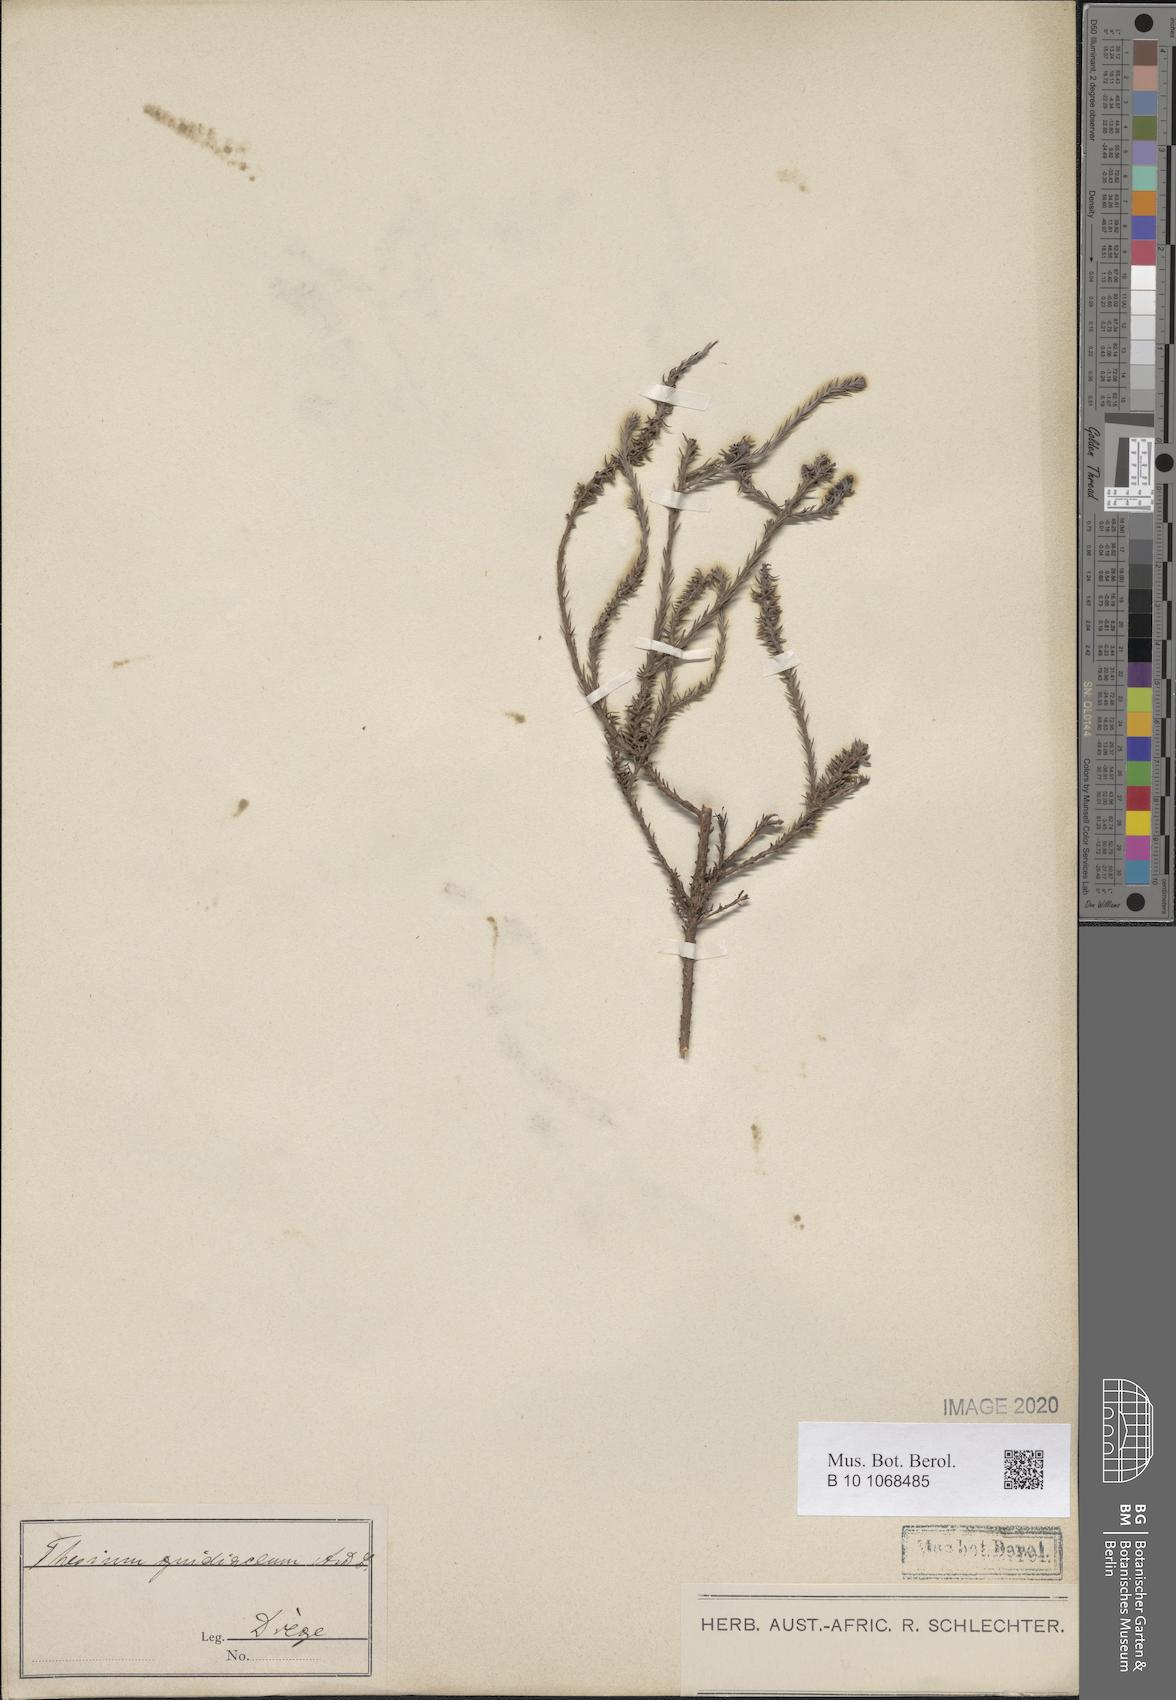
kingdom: Plantae
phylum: Tracheophyta
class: Magnoliopsida
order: Santalales
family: Thesiaceae
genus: Thesium
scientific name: Thesium gnidiaceum
